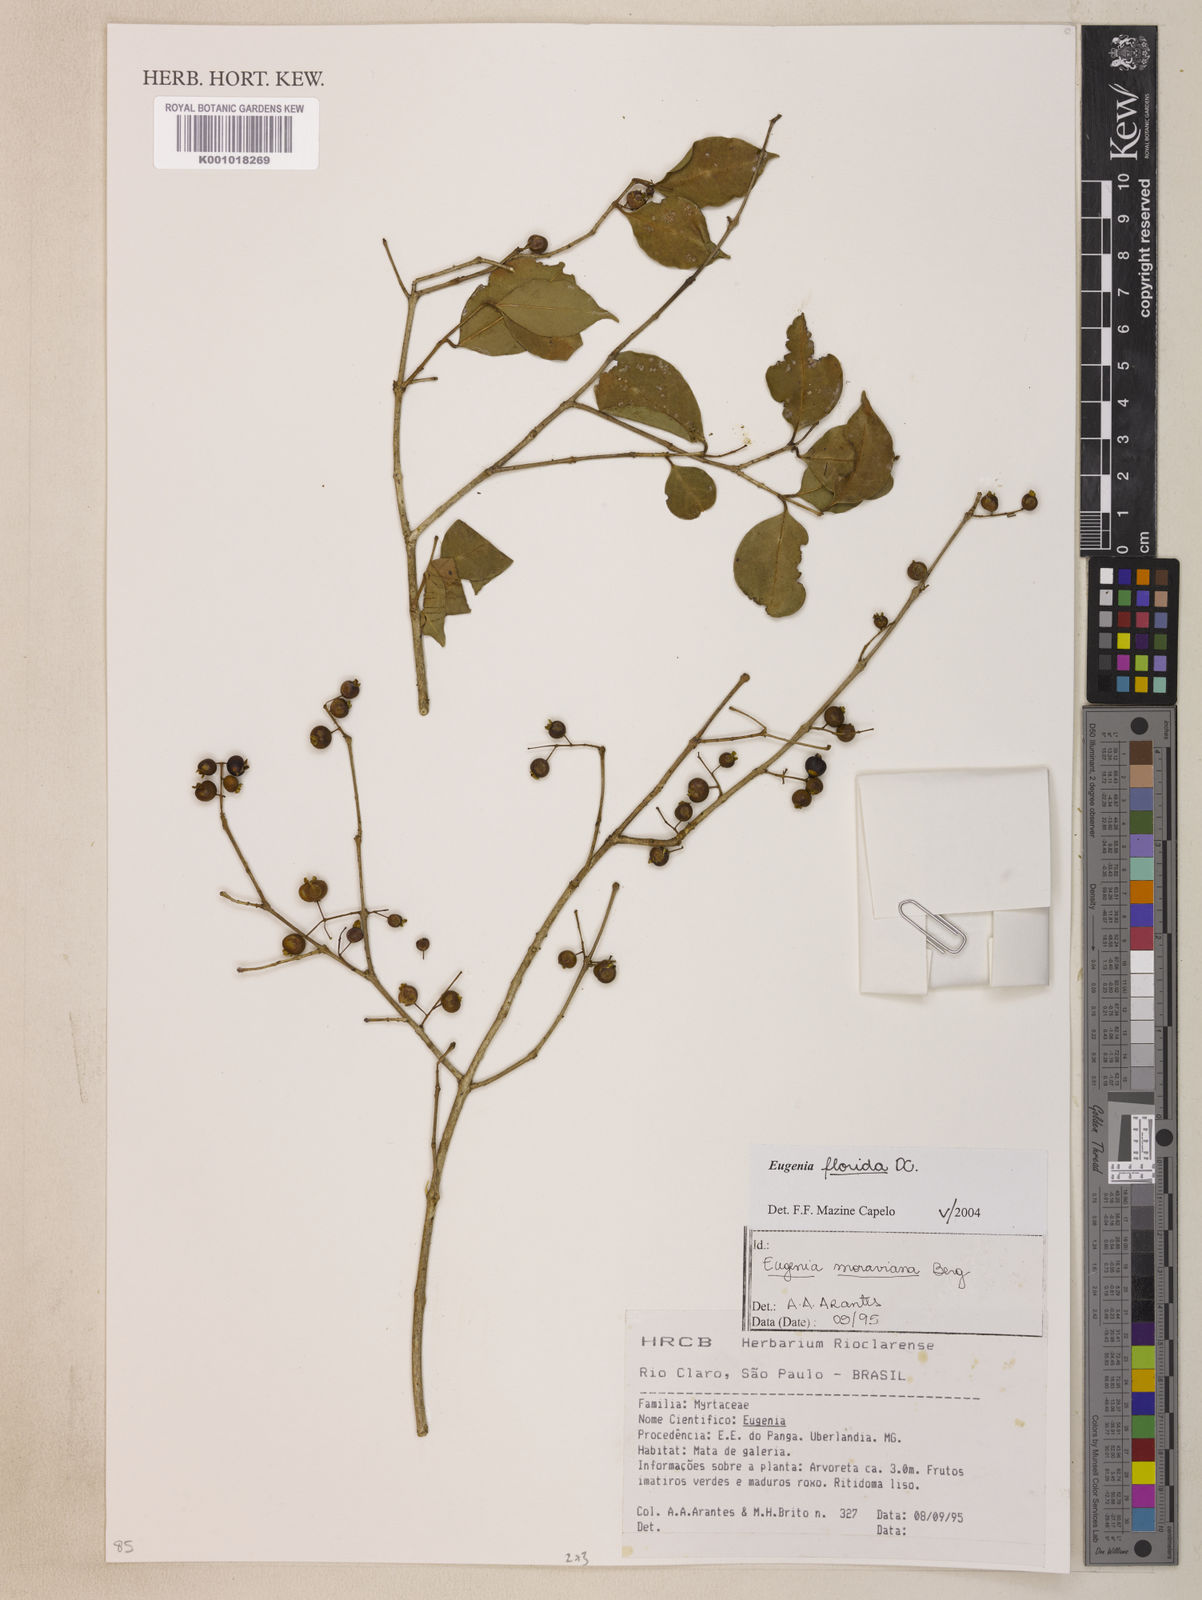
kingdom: Plantae
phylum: Tracheophyta
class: Magnoliopsida
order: Myrtales
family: Myrtaceae
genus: Eugenia
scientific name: Eugenia florida
